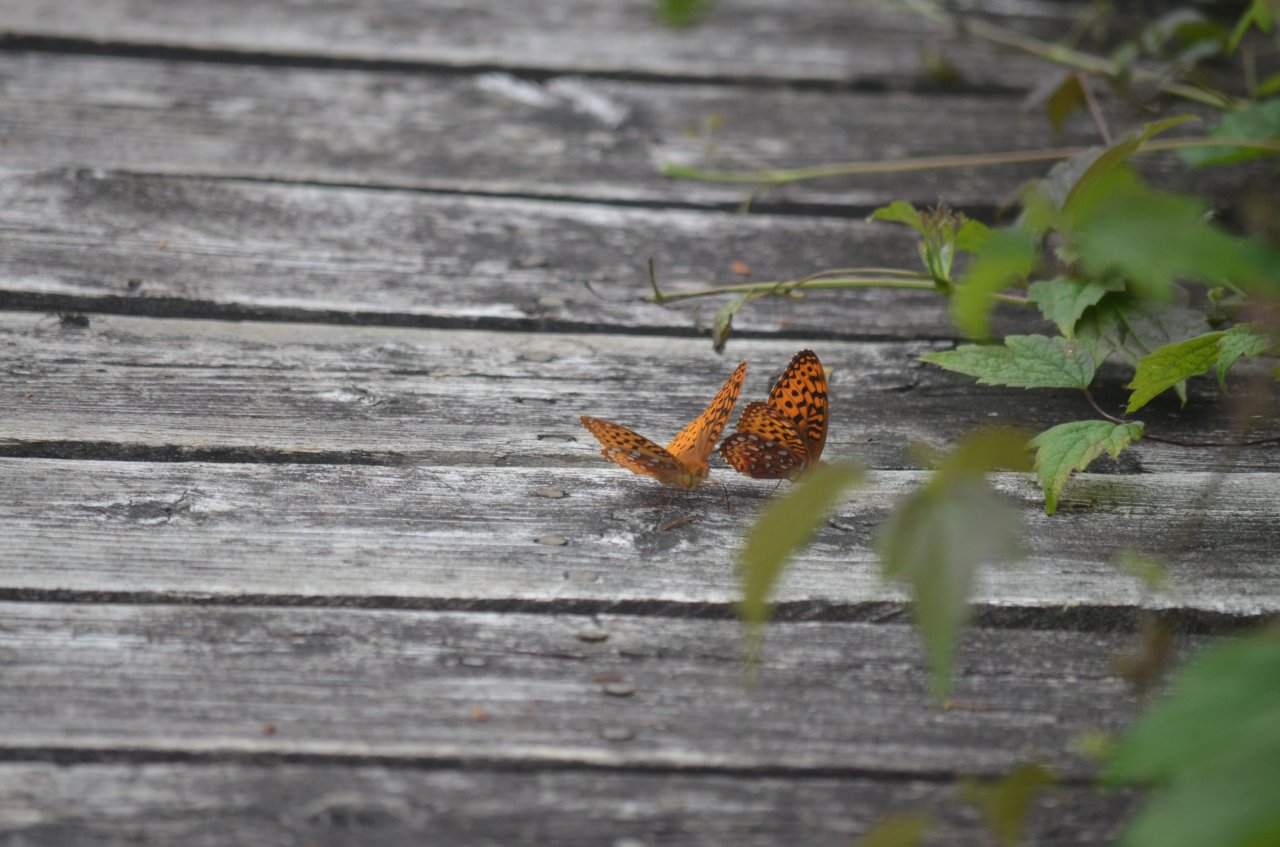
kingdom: Animalia
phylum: Arthropoda
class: Insecta
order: Lepidoptera
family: Nymphalidae
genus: Speyeria
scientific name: Speyeria aphrodite
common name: Aphrodite Fritillary
